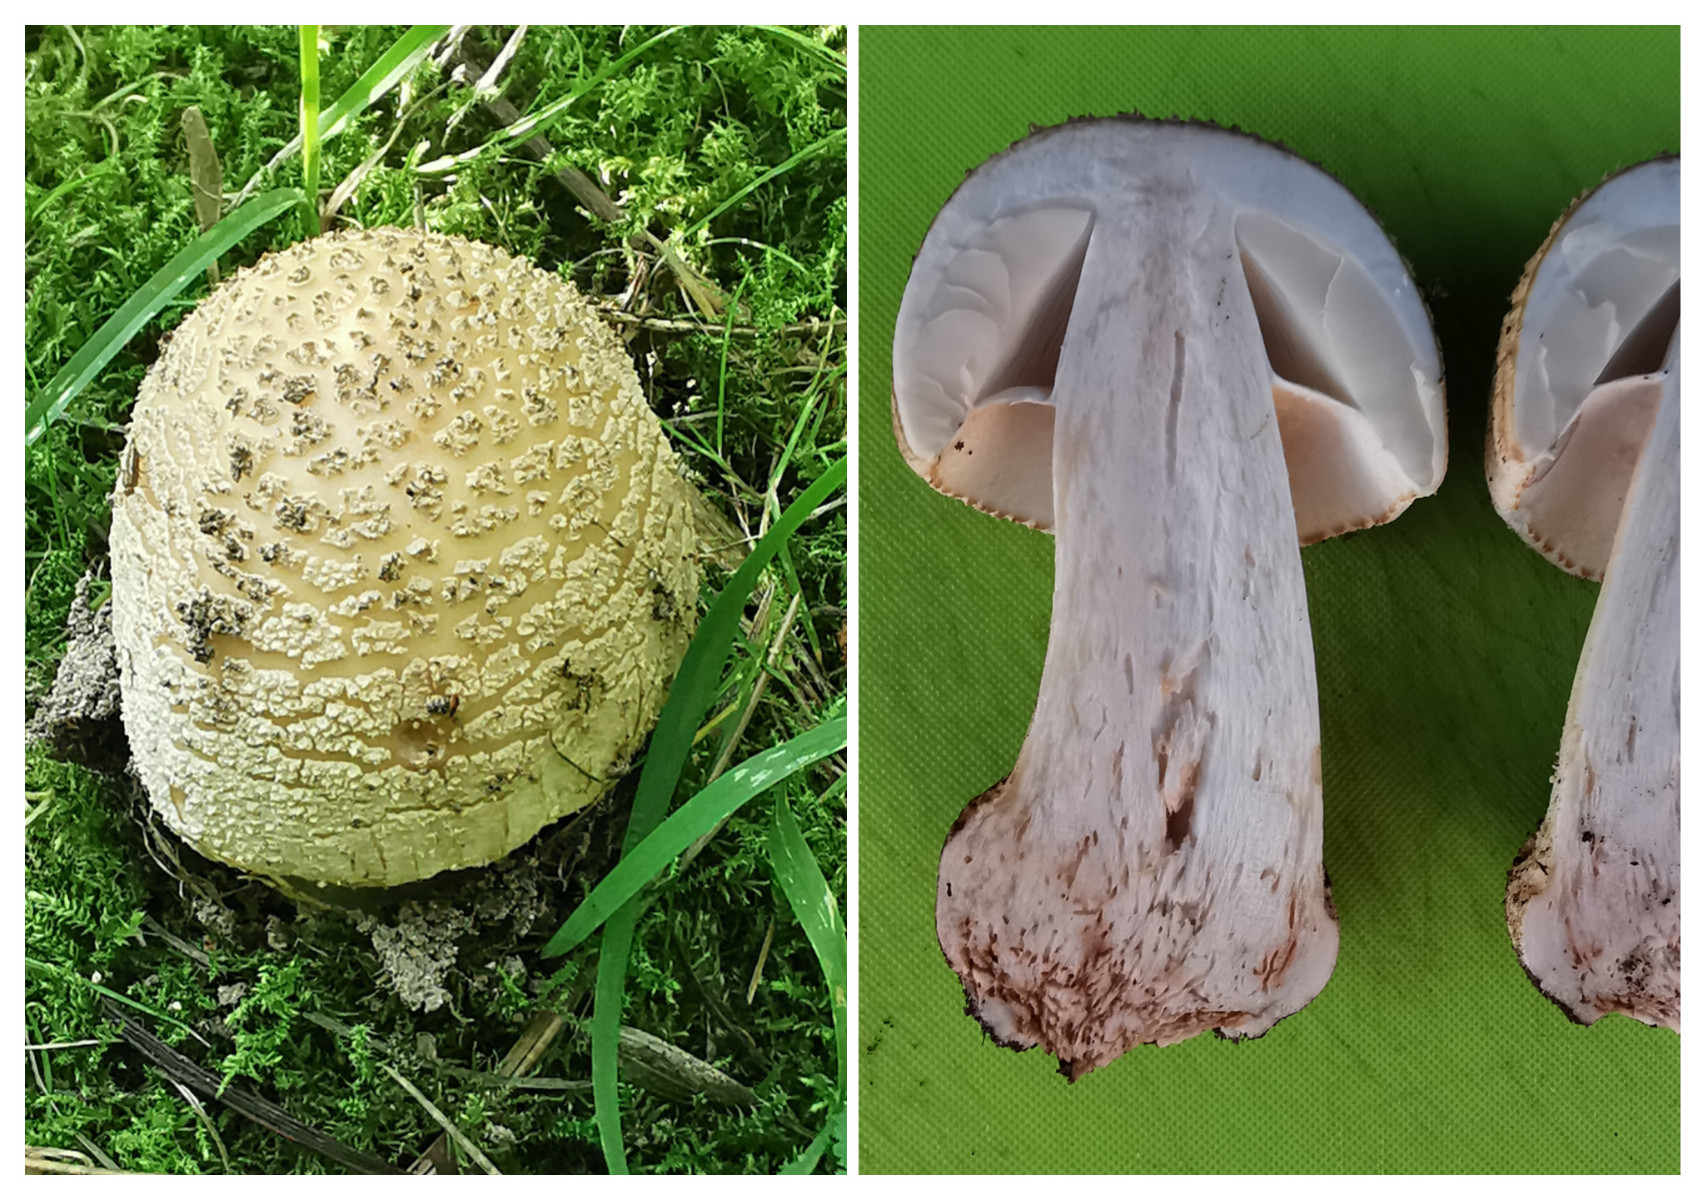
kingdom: Fungi
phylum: Basidiomycota
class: Agaricomycetes
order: Agaricales
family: Amanitaceae
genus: Amanita
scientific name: Amanita rubescens
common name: rødmende fluesvamp
